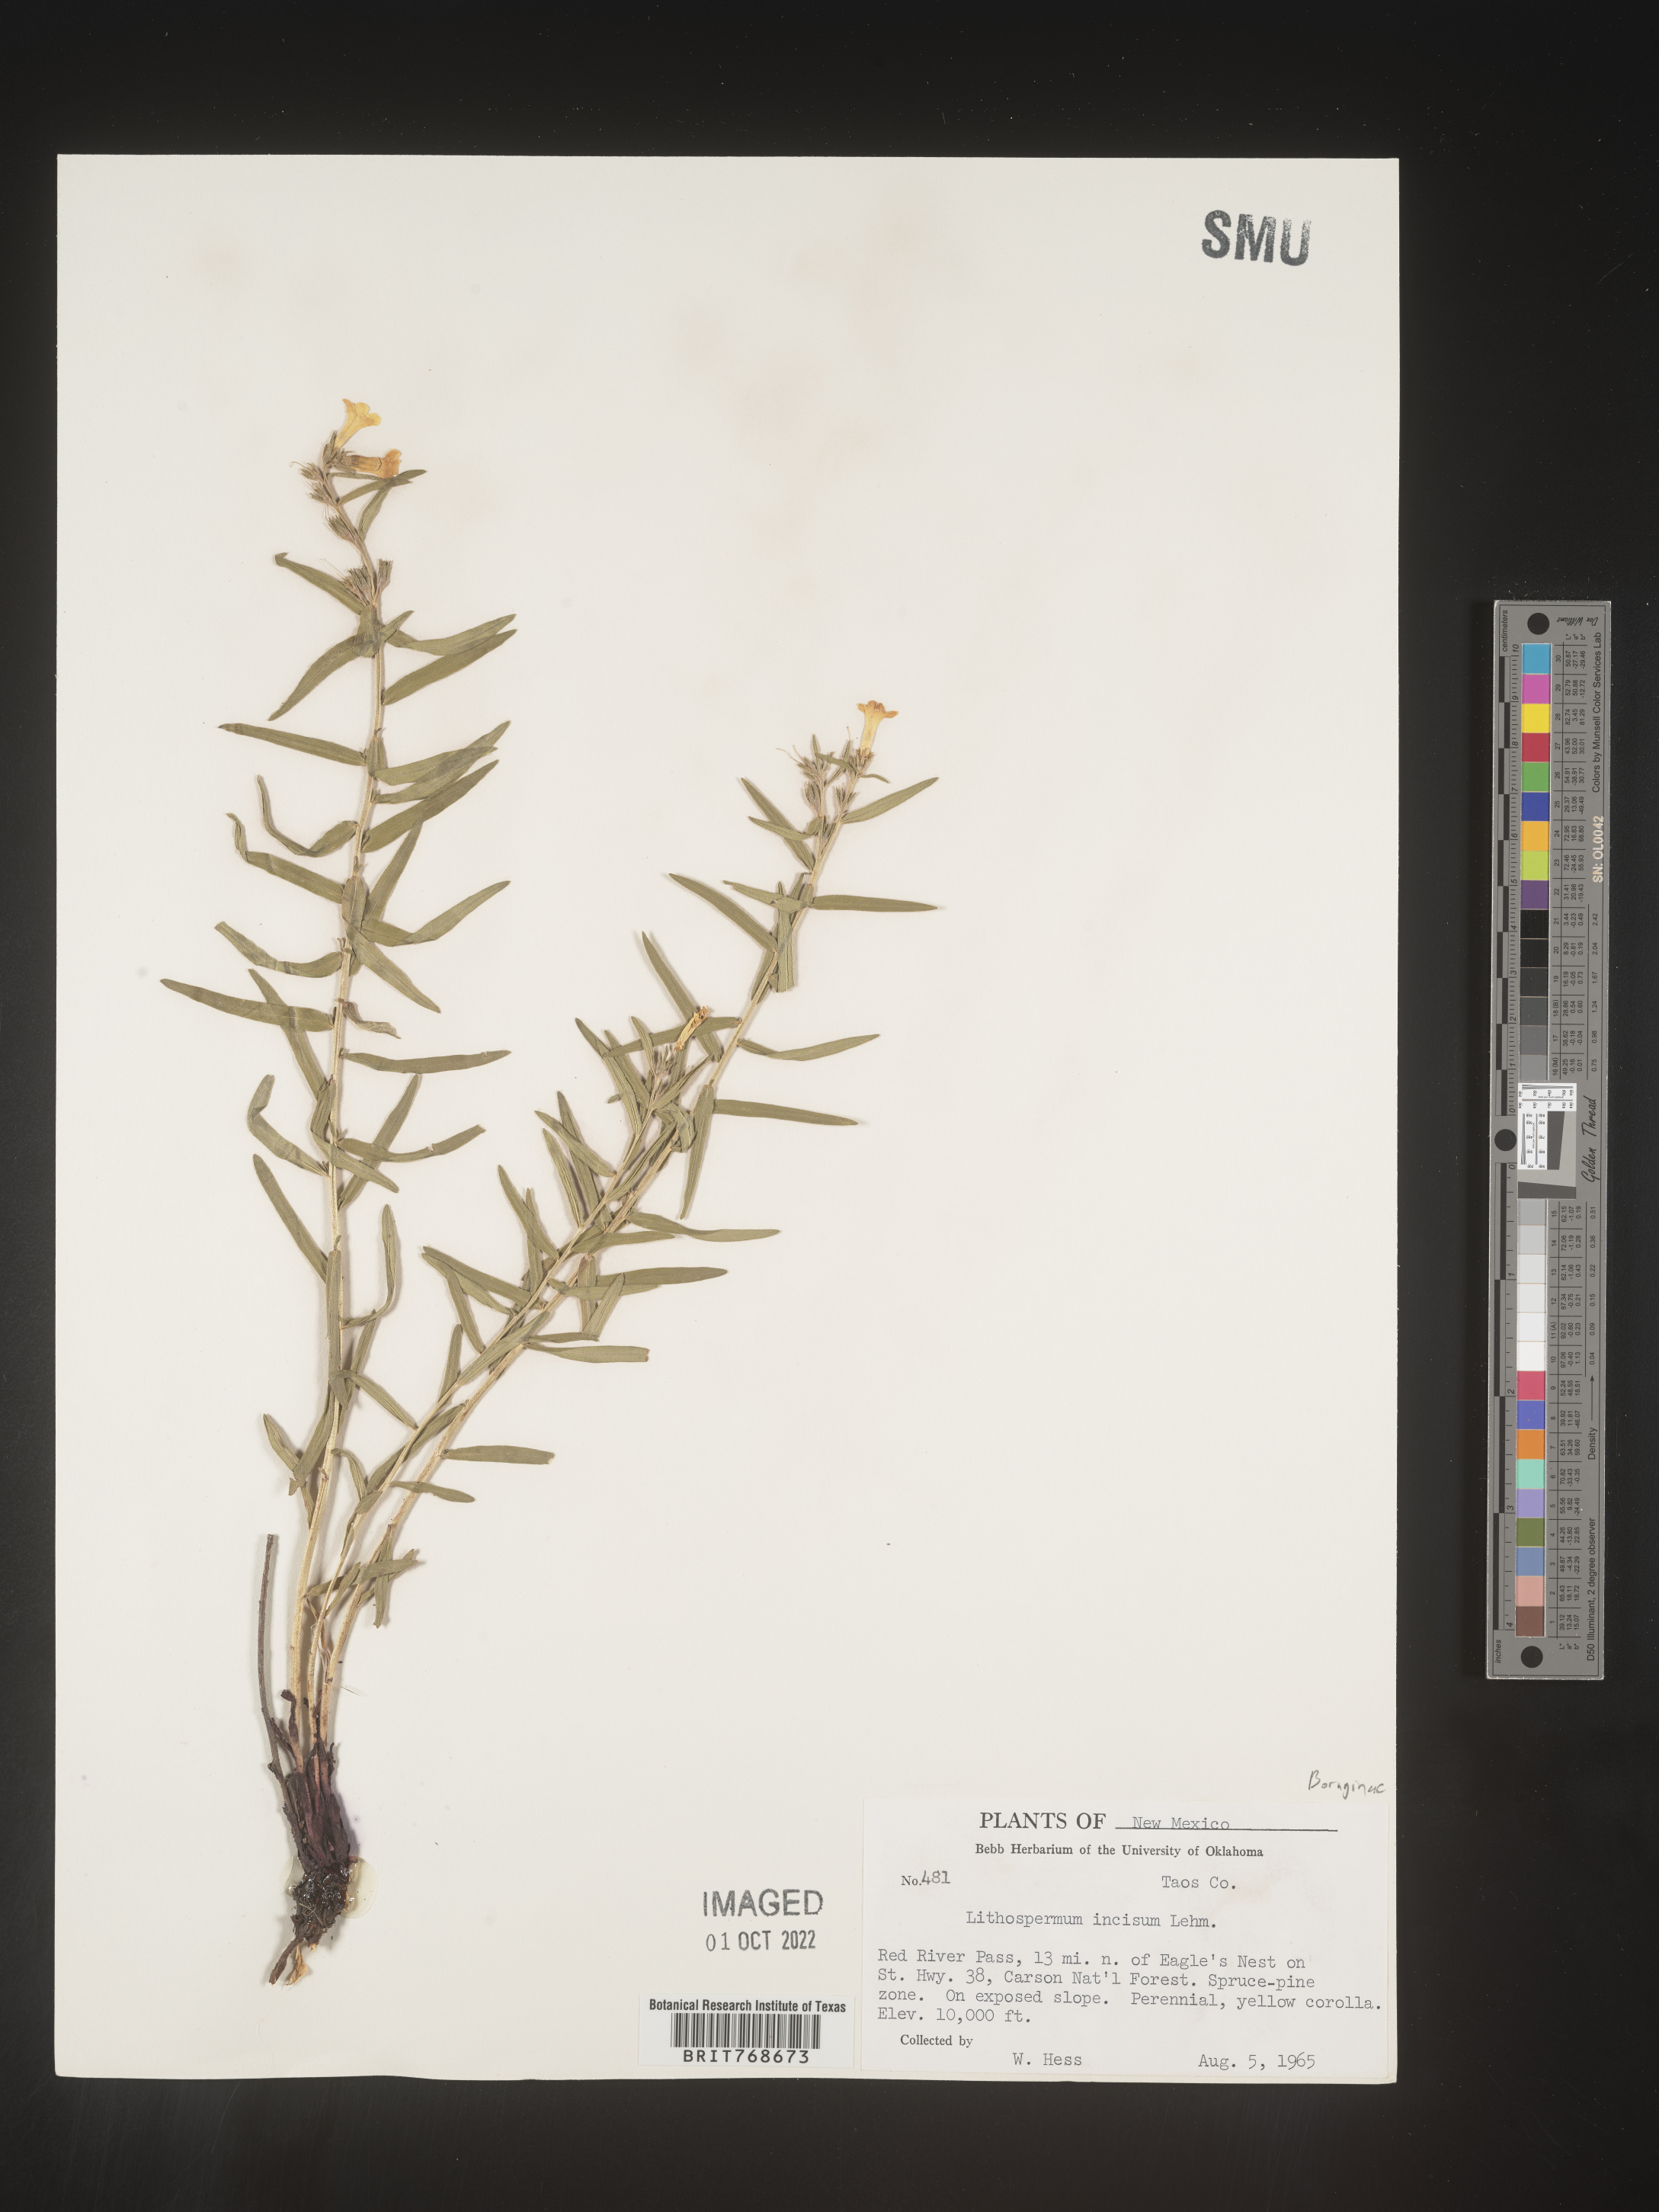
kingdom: Plantae
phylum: Tracheophyta
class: Magnoliopsida
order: Boraginales
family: Boraginaceae
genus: Lithospermum
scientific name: Lithospermum incisum
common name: Fringed gromwell
